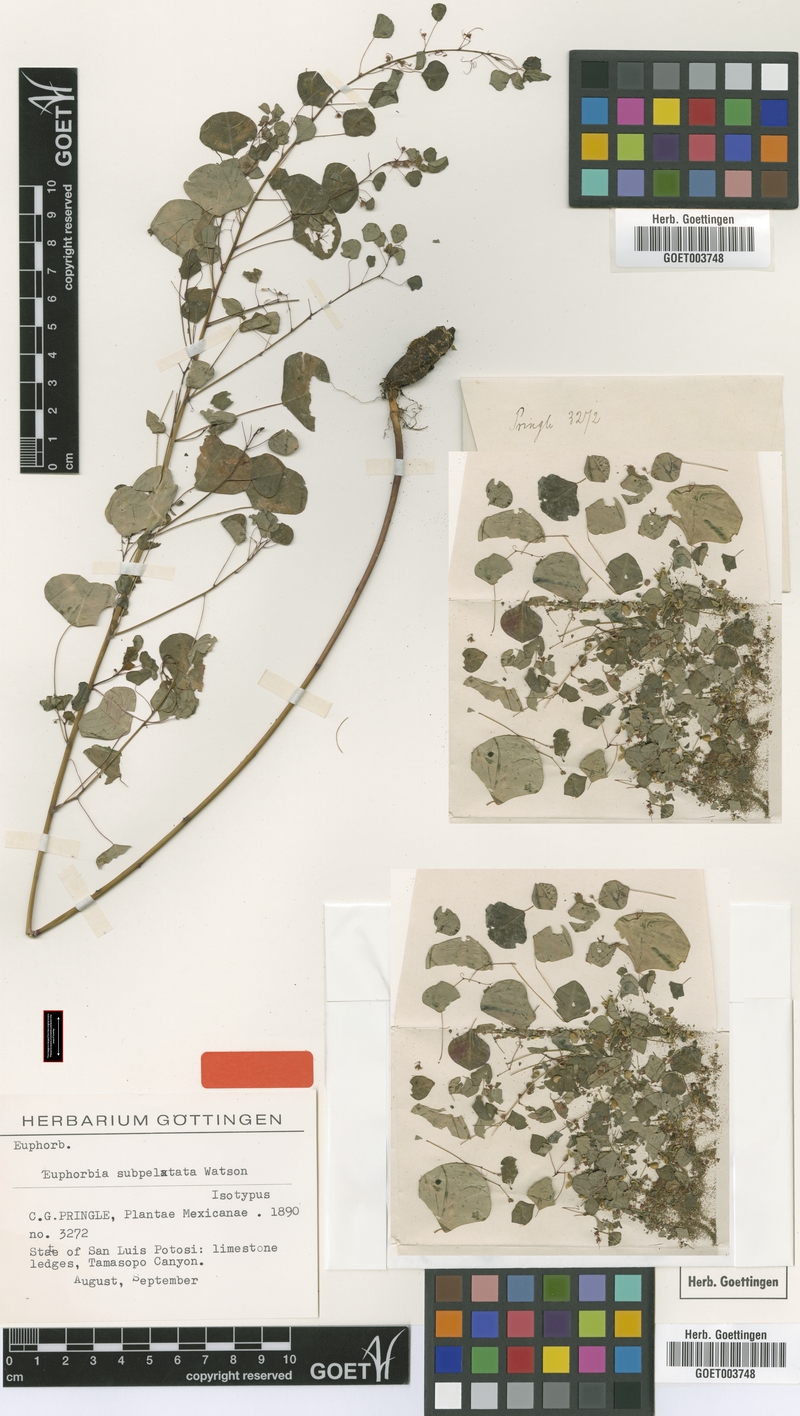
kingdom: Plantae
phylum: Tracheophyta
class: Magnoliopsida
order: Malpighiales
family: Euphorbiaceae
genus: Euphorbia
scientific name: Euphorbia subpeltata
